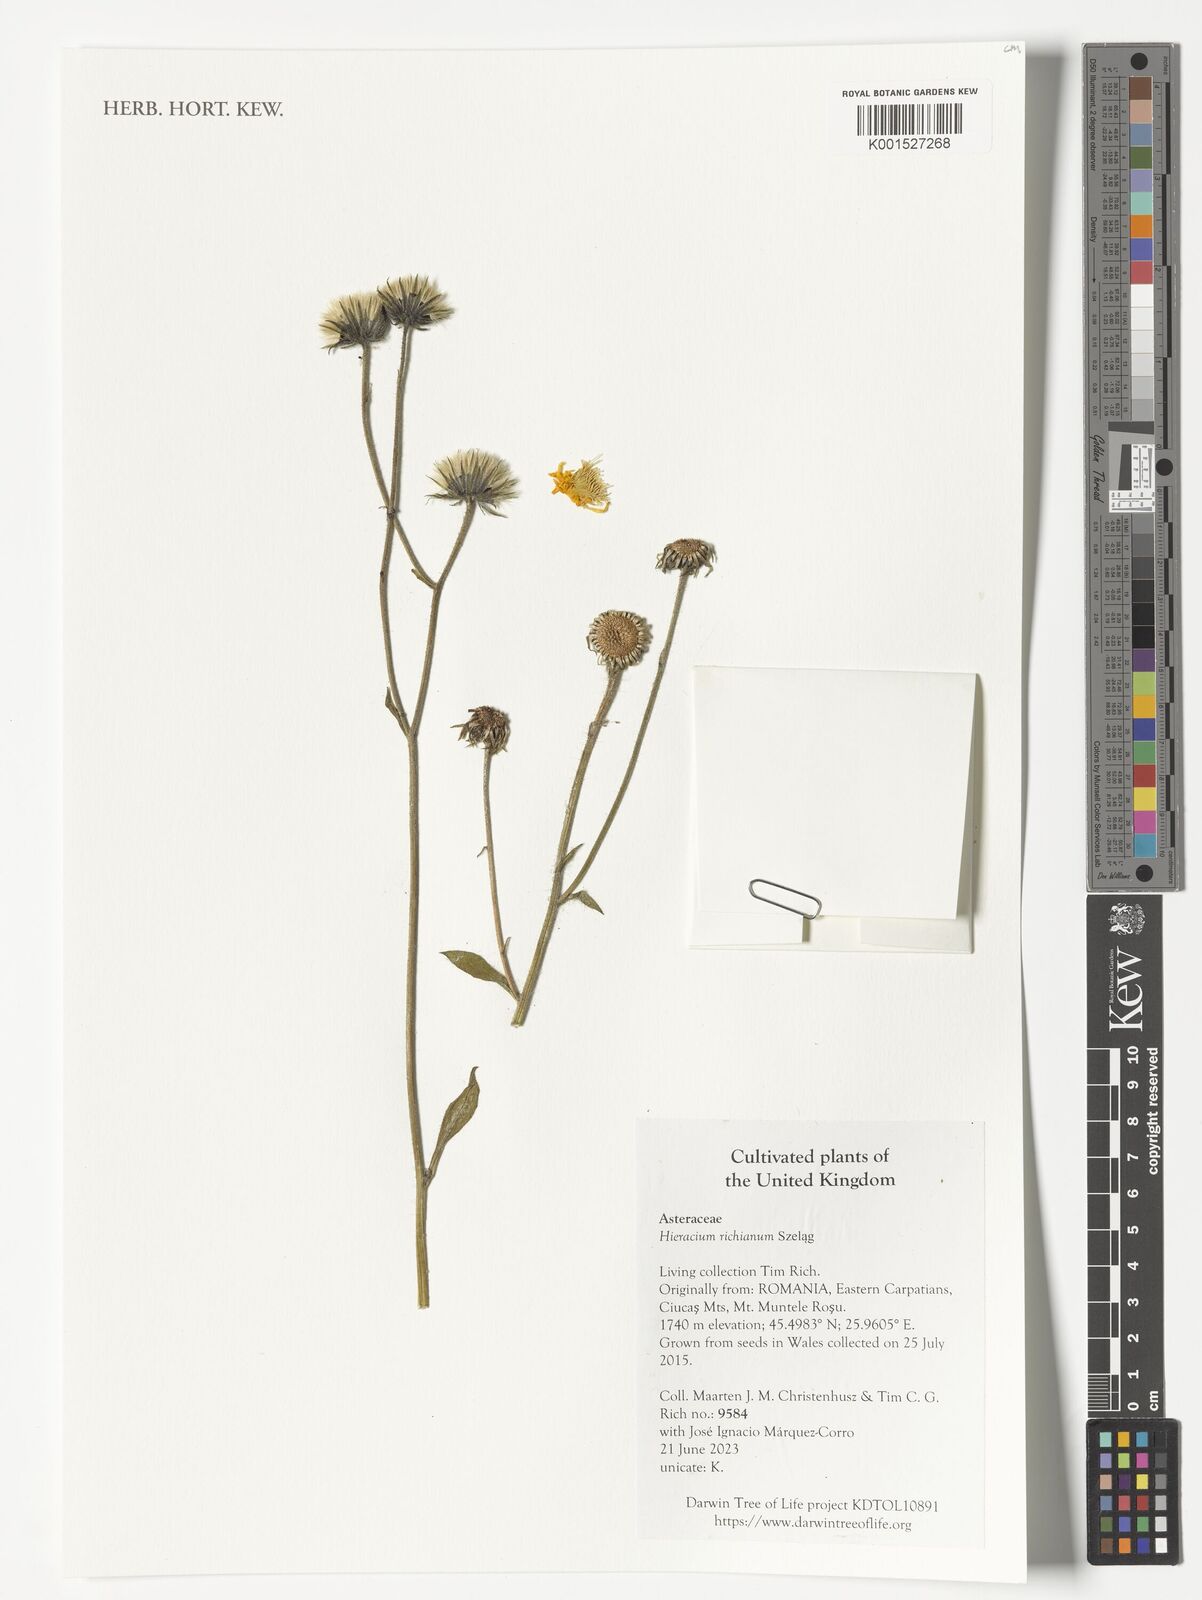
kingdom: Plantae
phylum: Tracheophyta
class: Magnoliopsida
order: Asterales
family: Asteraceae
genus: Hieracium
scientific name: Hieracium
